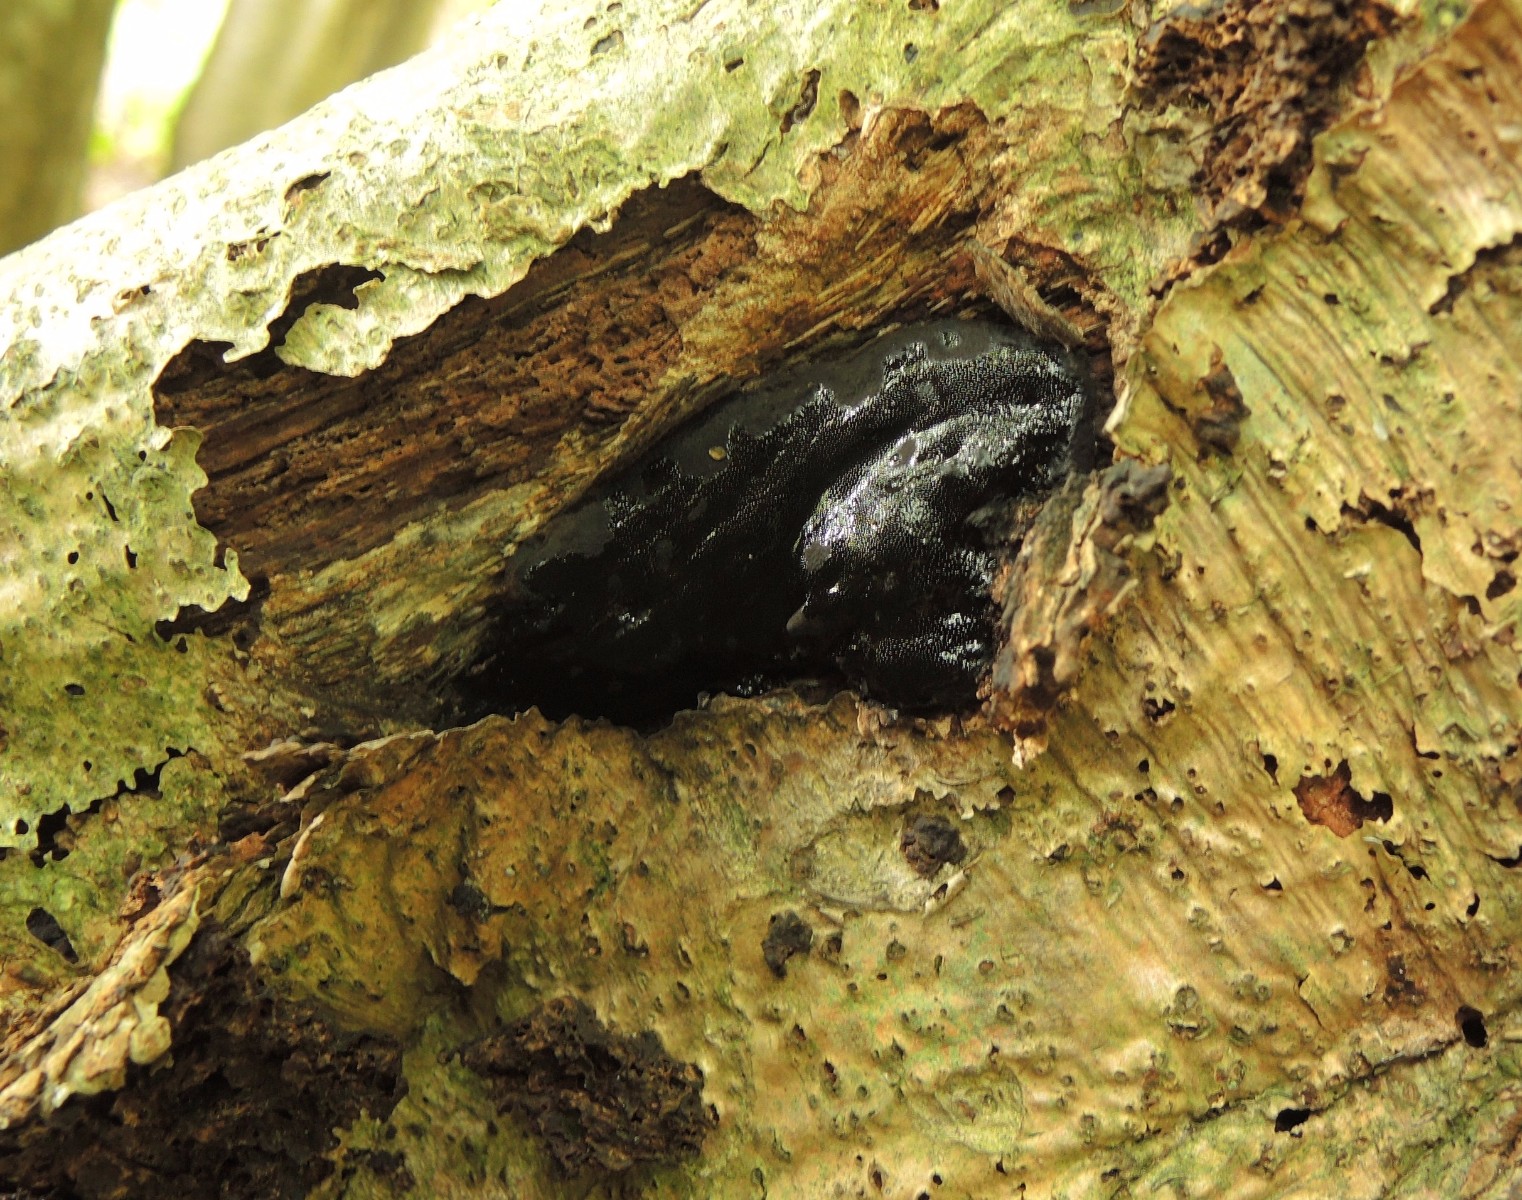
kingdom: Fungi
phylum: Ascomycota
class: Sordariomycetes
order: Boliniales
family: Boliniaceae
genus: Camarops
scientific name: Camarops polysperma
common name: elle-kulsnegl
